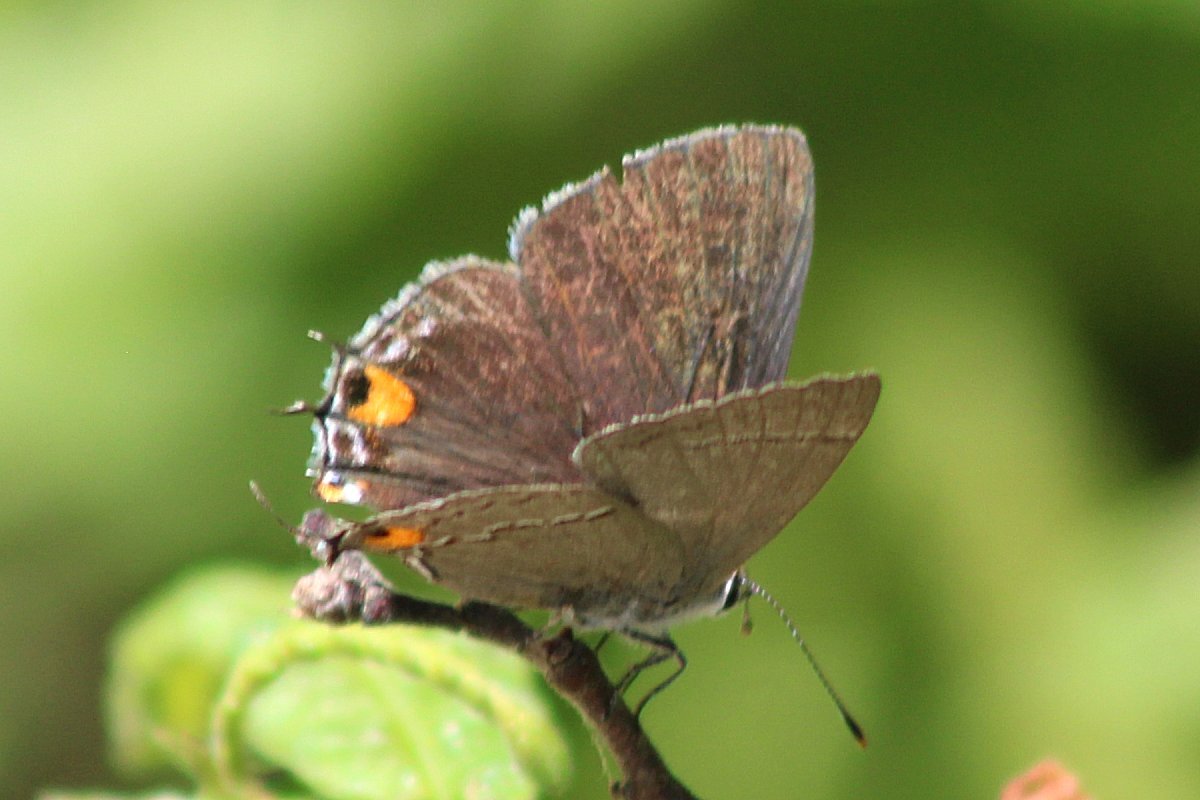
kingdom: Animalia
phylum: Arthropoda
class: Insecta
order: Lepidoptera
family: Lycaenidae
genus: Strymon
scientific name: Strymon melinus
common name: Gray Hairstreak
